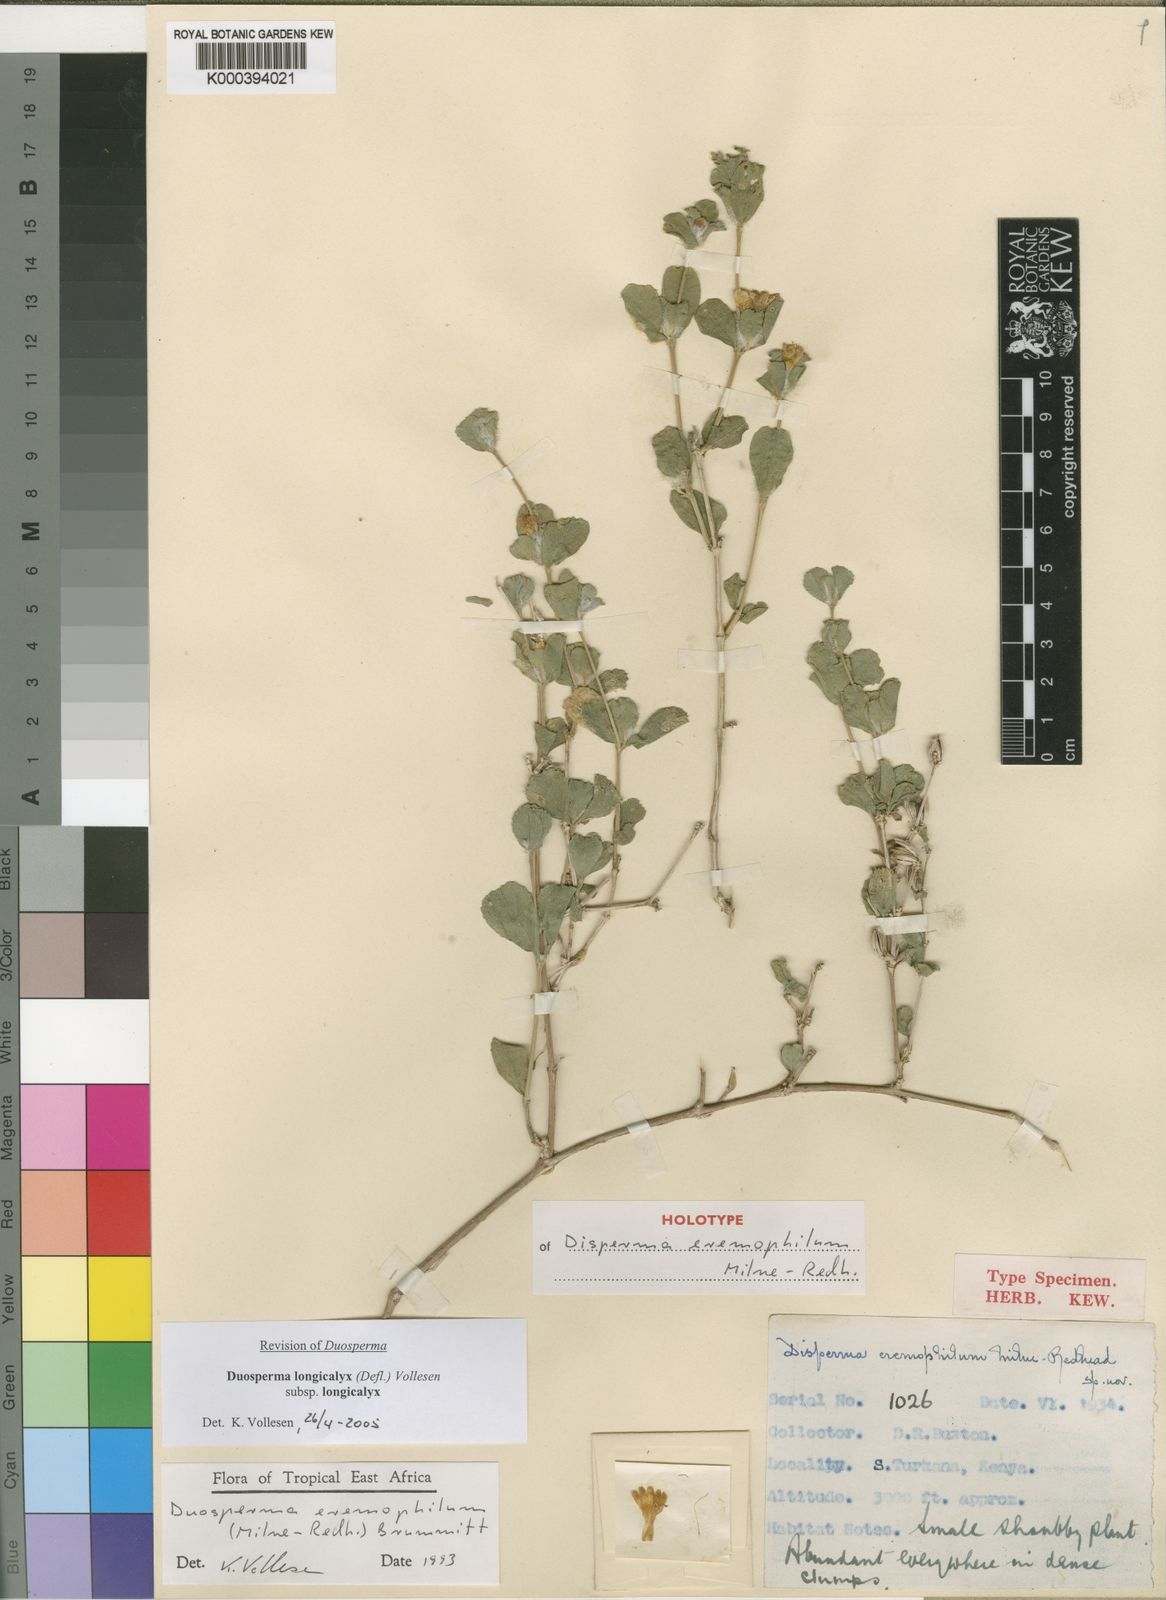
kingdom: Plantae
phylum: Tracheophyta
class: Magnoliopsida
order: Lamiales
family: Acanthaceae
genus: Duosperma
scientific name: Duosperma longicalyx
